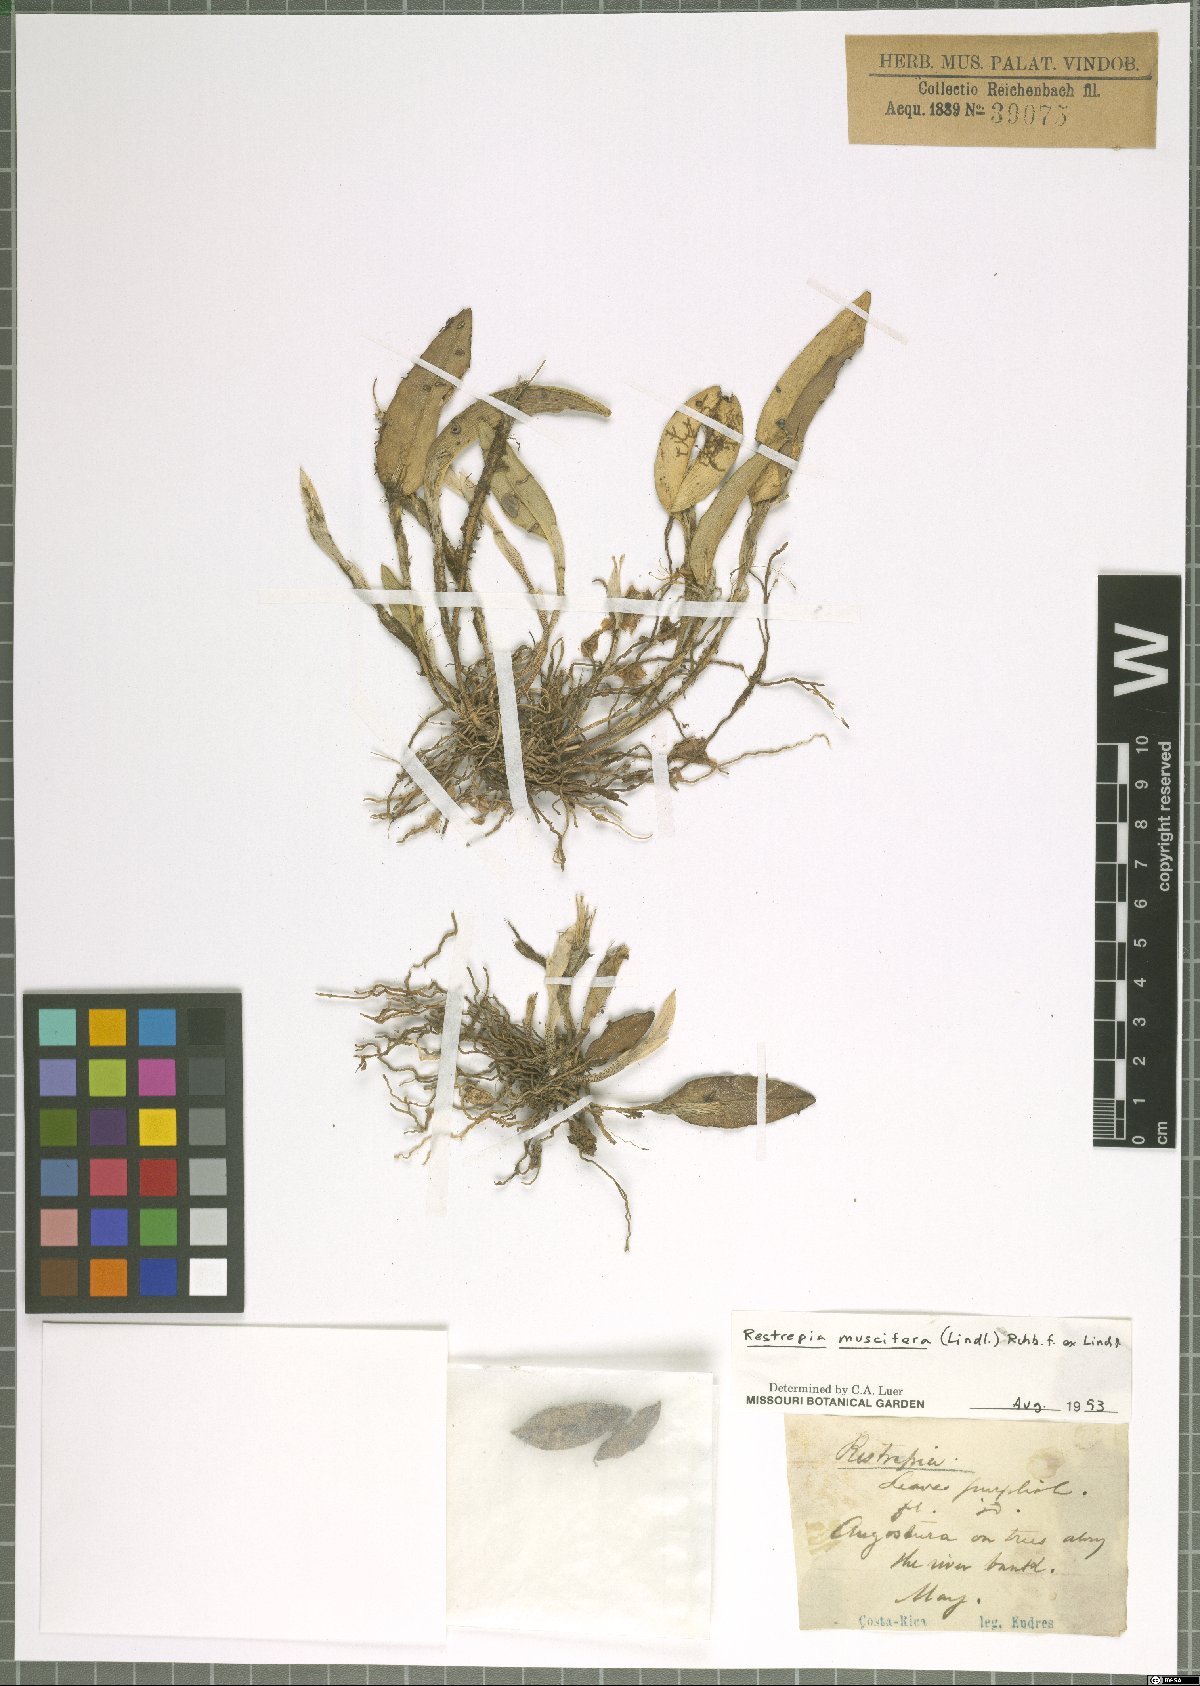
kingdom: Plantae
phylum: Tracheophyta
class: Liliopsida
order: Asparagales
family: Orchidaceae
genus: Restrepia
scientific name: Restrepia muscifera
